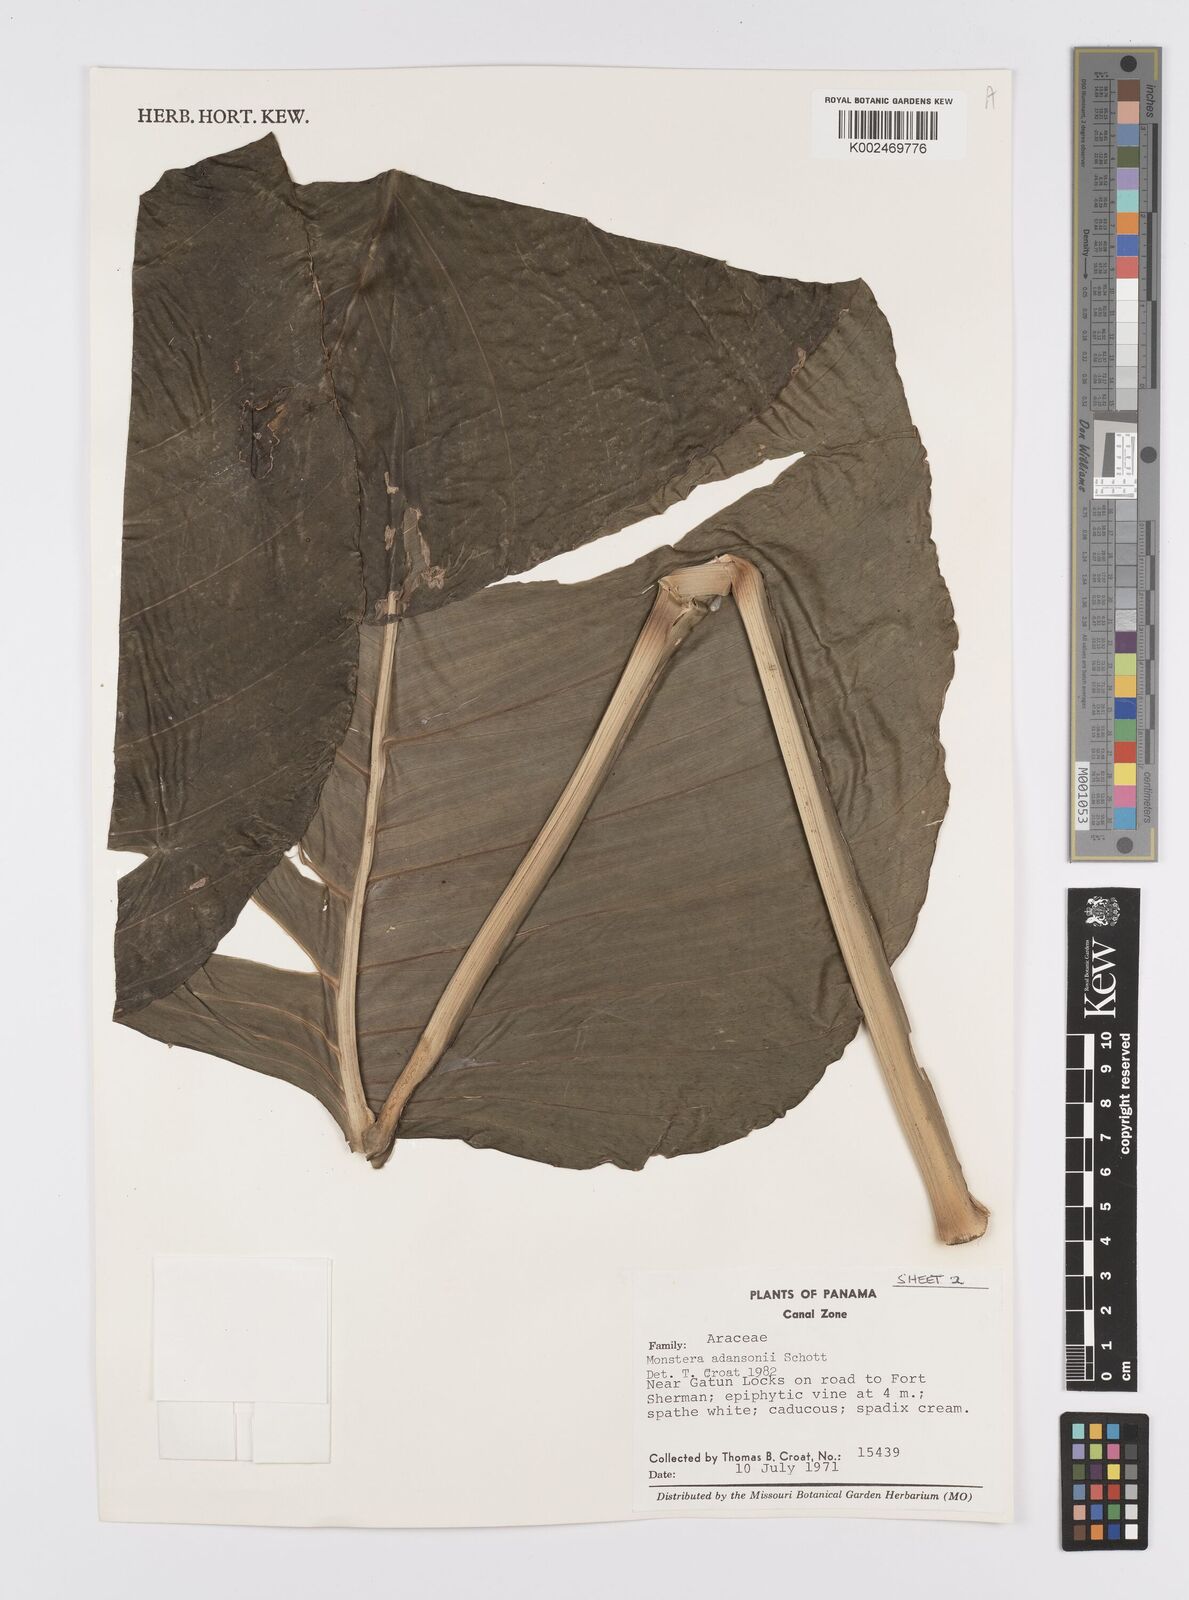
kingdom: Plantae
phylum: Tracheophyta
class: Liliopsida
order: Alismatales
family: Araceae
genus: Monstera
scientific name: Monstera adansonii
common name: Tarovine
